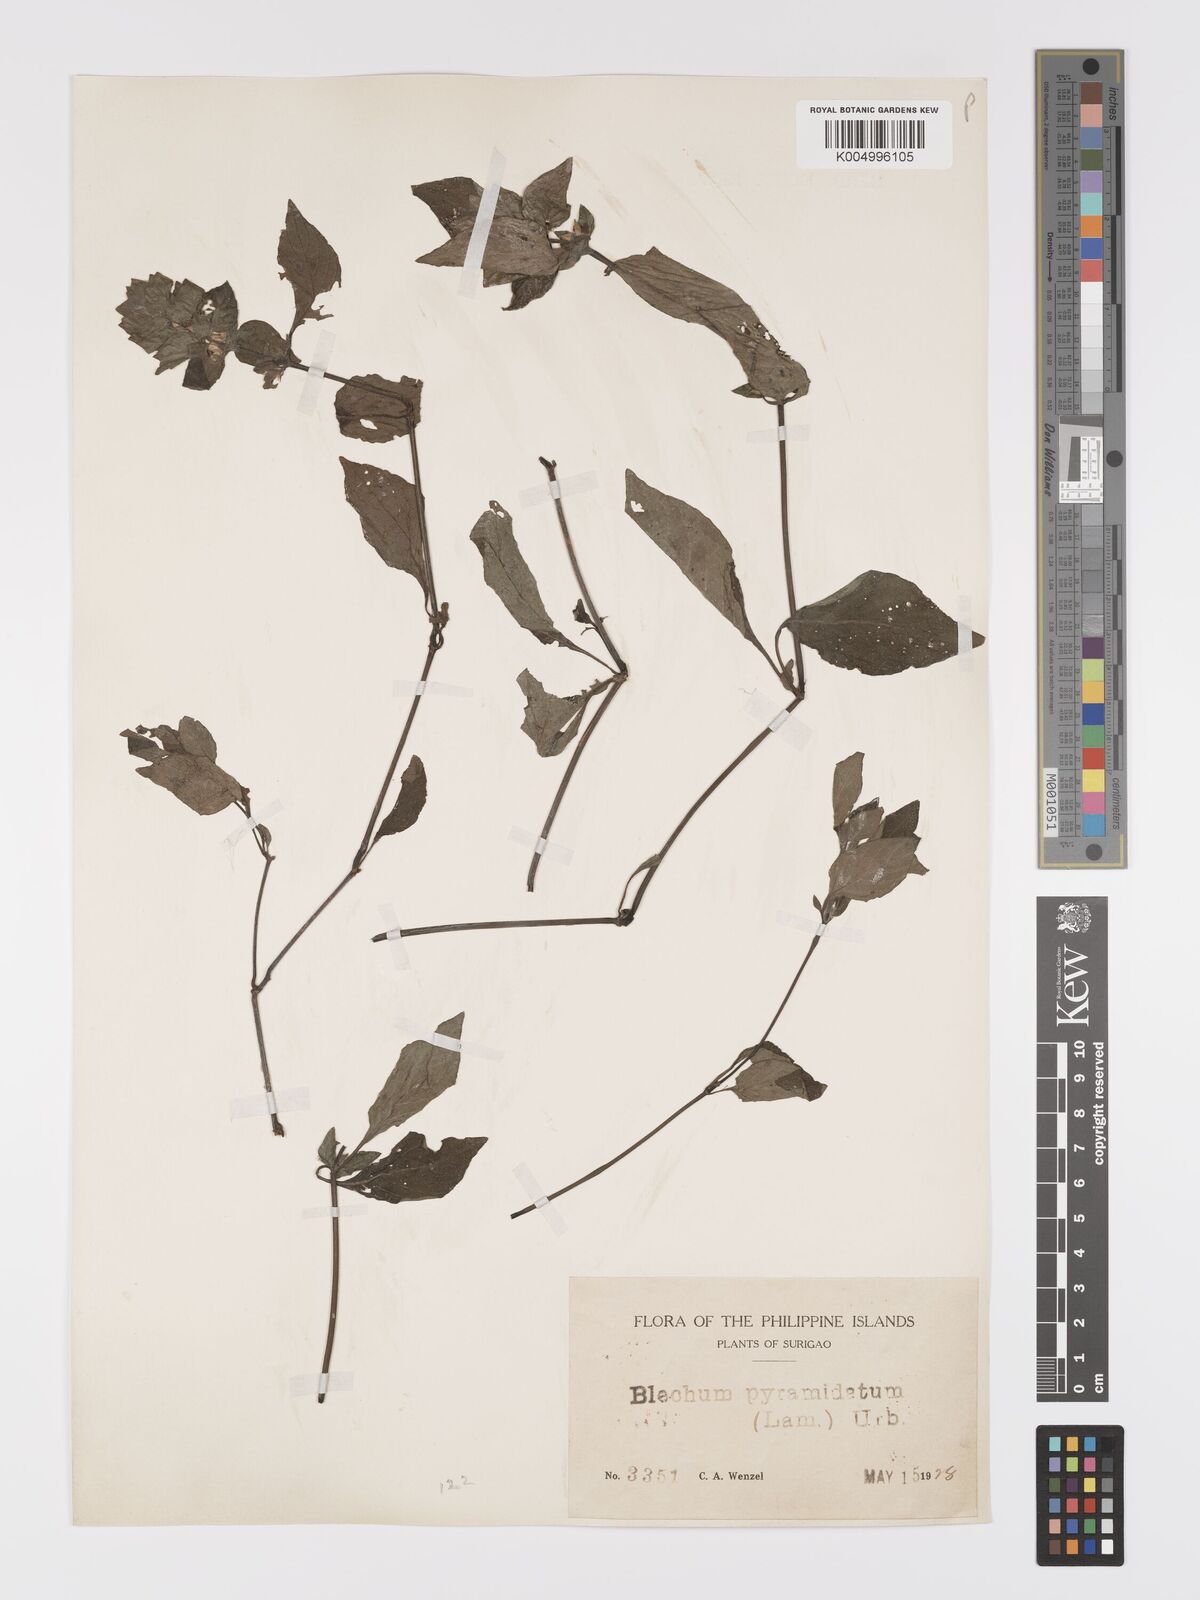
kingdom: Plantae
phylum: Tracheophyta
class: Magnoliopsida
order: Lamiales
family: Acanthaceae
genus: Ruellia
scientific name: Ruellia blechum
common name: Browne's blechum
